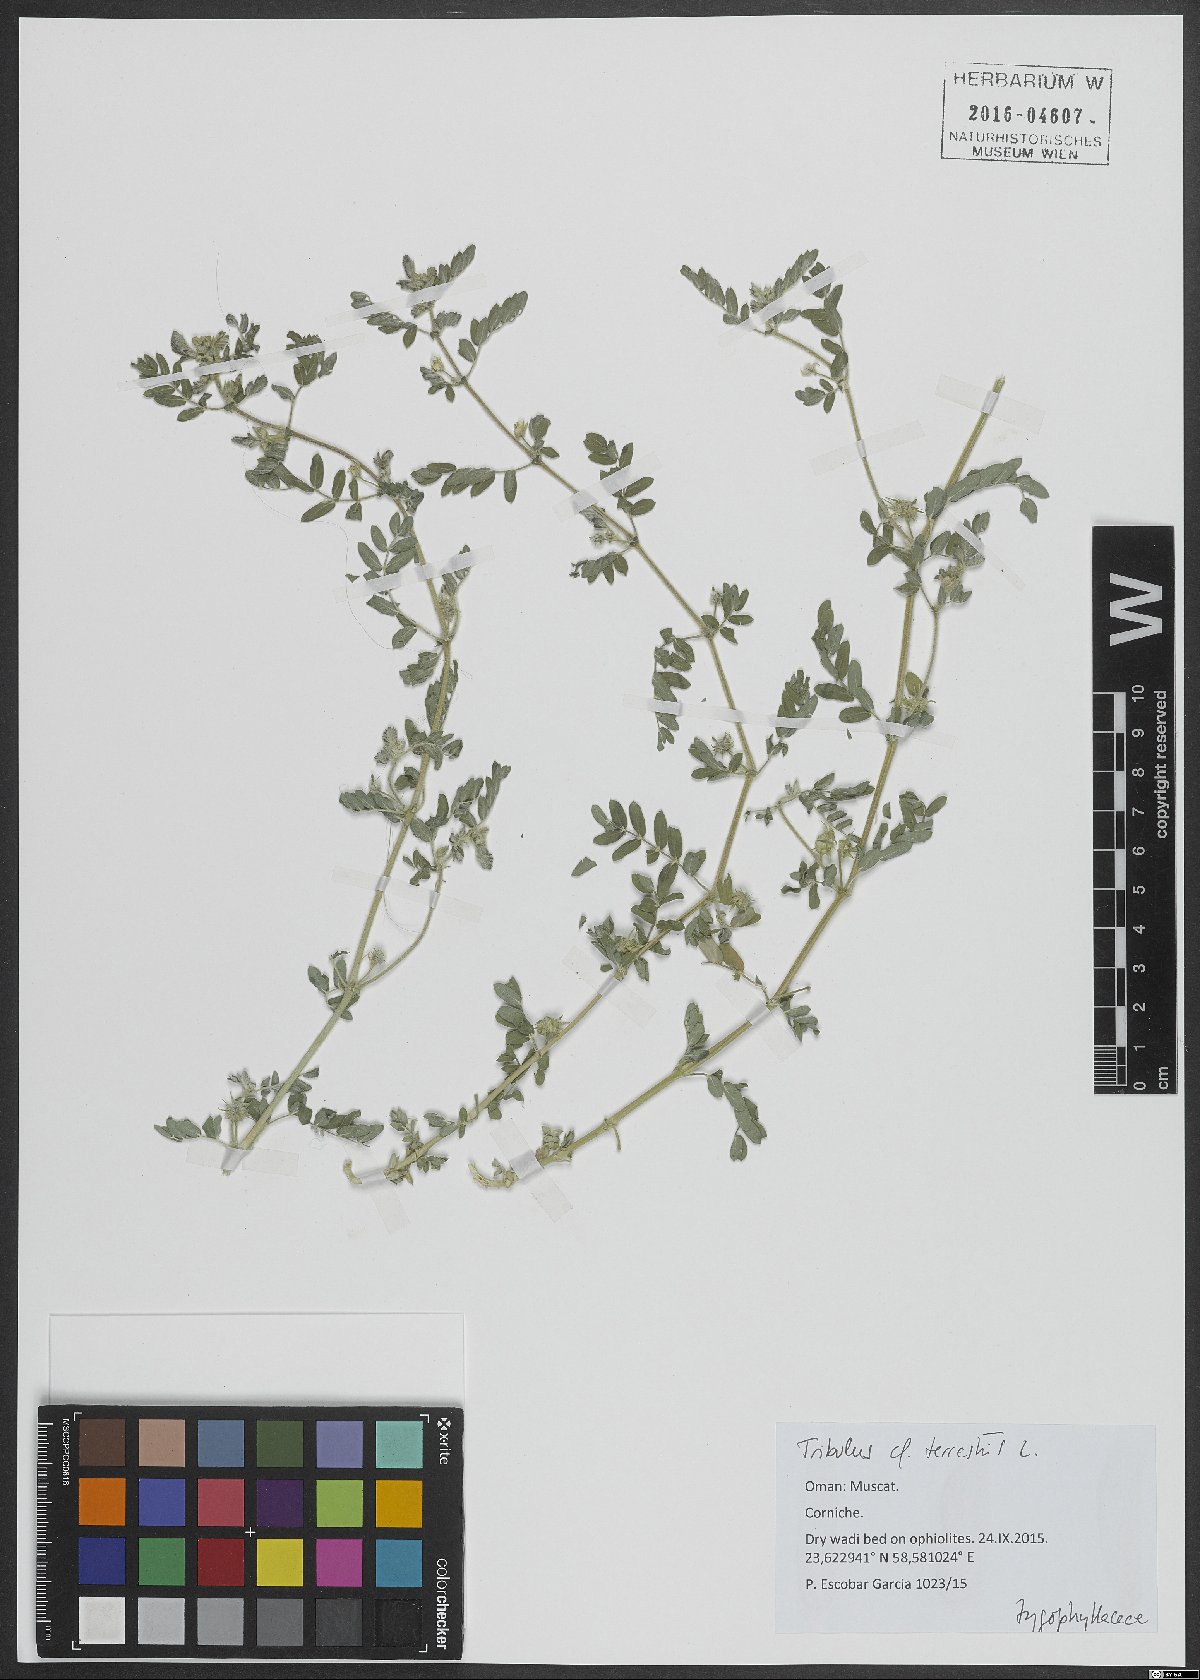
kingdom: Plantae
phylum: Tracheophyta
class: Magnoliopsida
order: Zygophyllales
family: Zygophyllaceae
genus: Tribulus
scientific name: Tribulus terrestris
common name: Puncturevine
